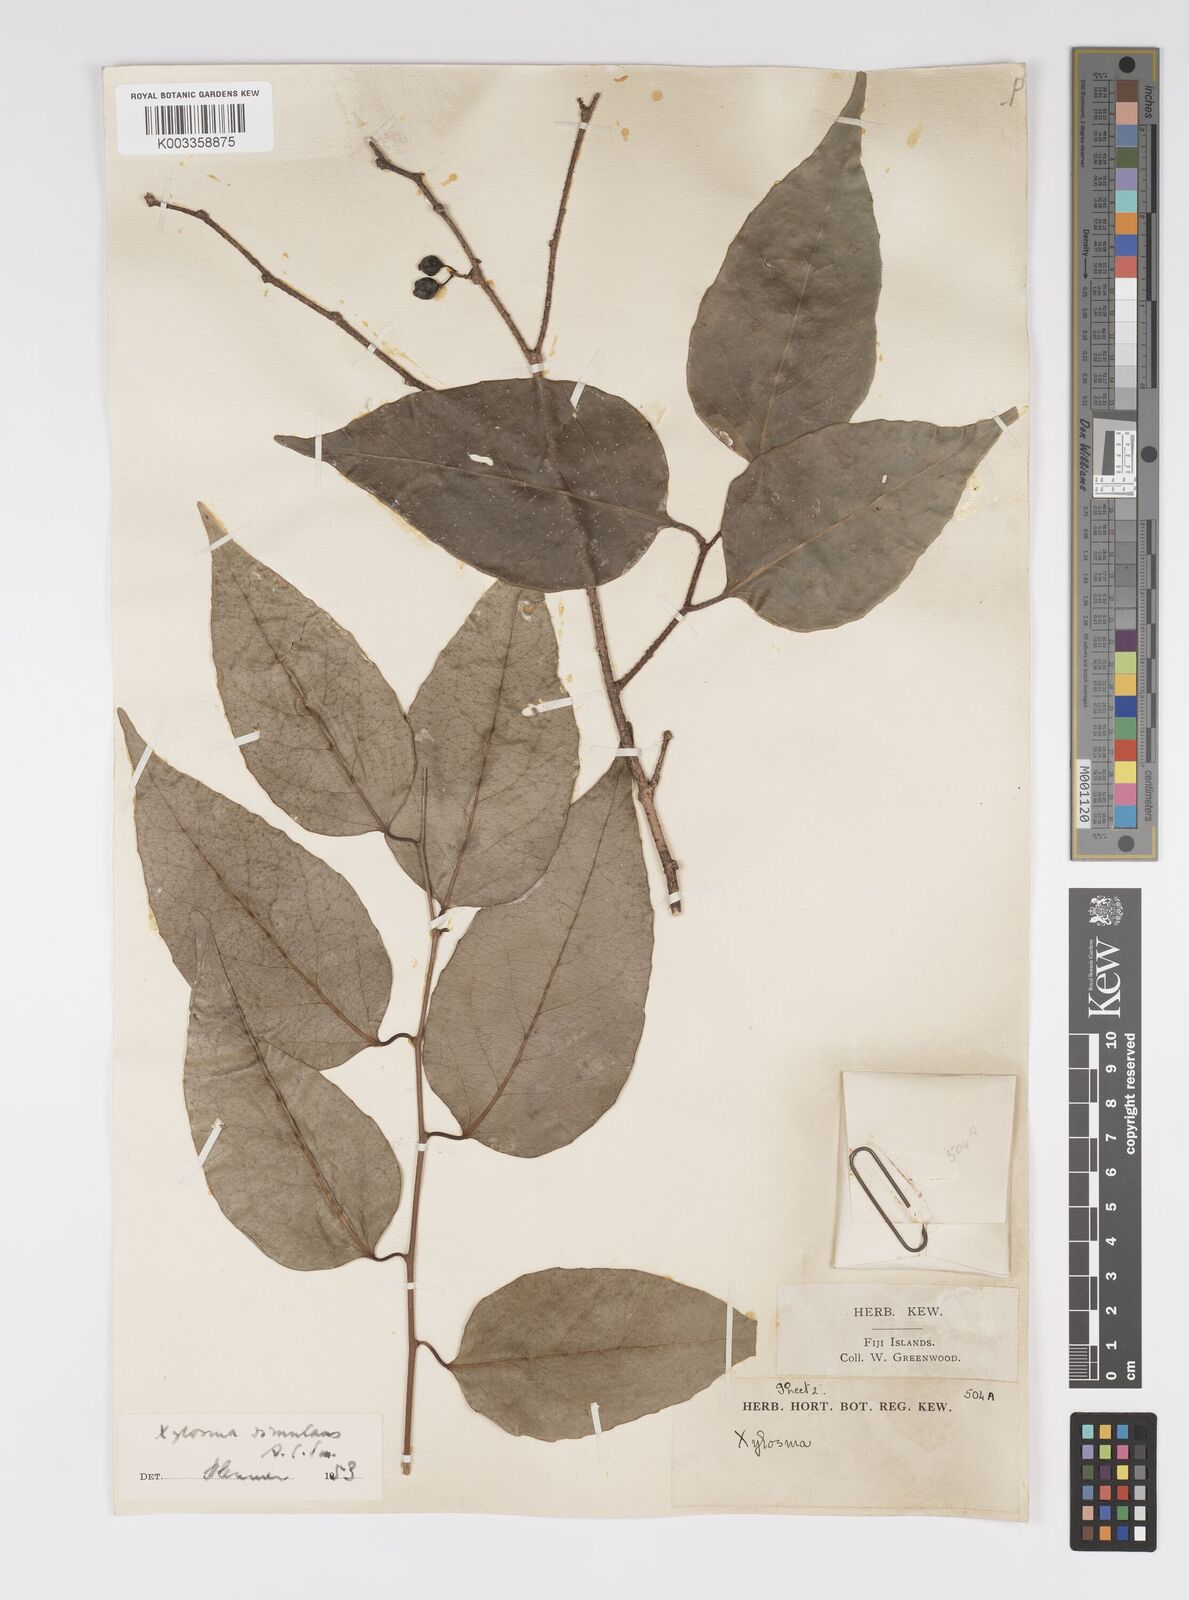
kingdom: Plantae
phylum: Tracheophyta
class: Magnoliopsida
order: Malpighiales
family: Salicaceae
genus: Xylosma
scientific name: Xylosma simulans
